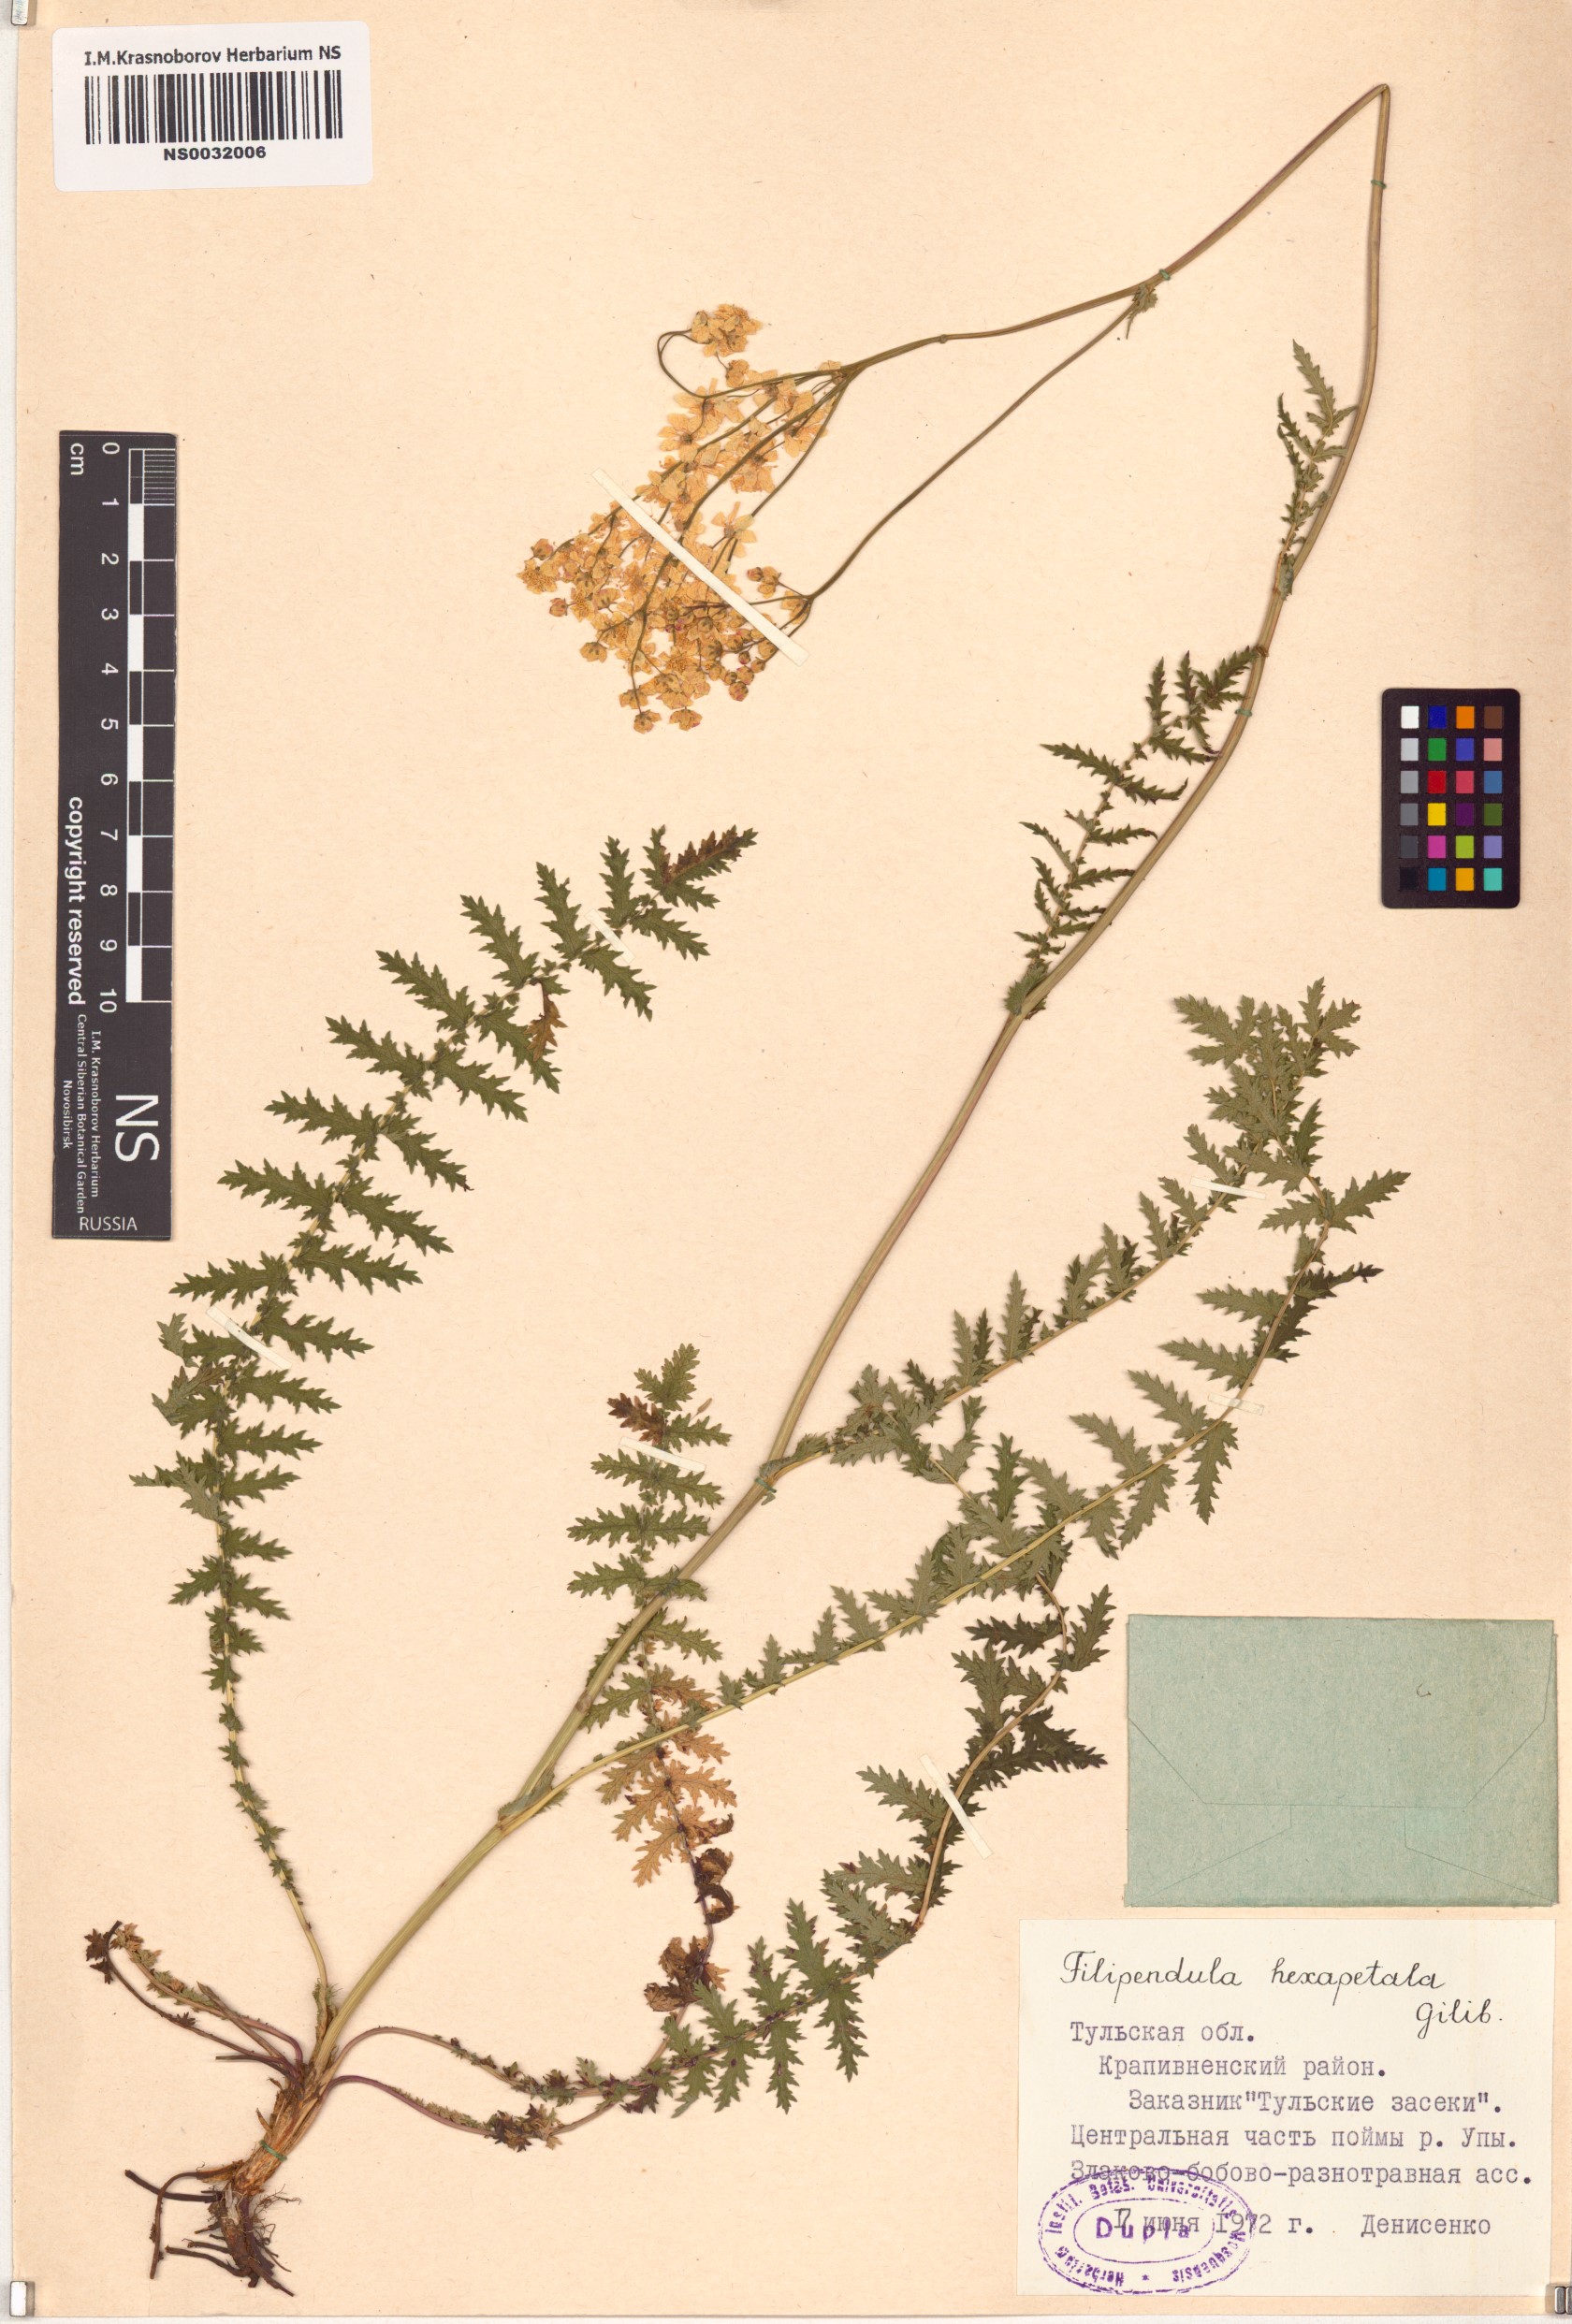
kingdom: Plantae
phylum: Tracheophyta
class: Magnoliopsida
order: Rosales
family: Rosaceae
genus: Filipendula
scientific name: Filipendula vulgaris
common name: Dropwort
